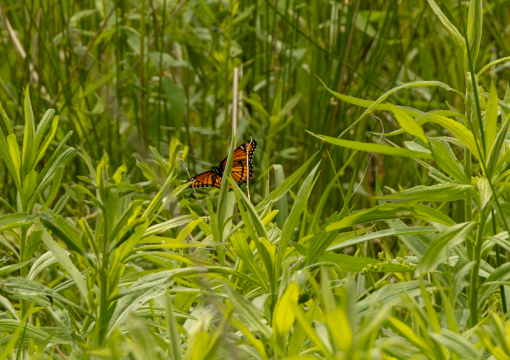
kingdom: Animalia
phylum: Arthropoda
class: Insecta
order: Lepidoptera
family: Nymphalidae
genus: Limenitis
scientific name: Limenitis archippus
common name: Viceroy
